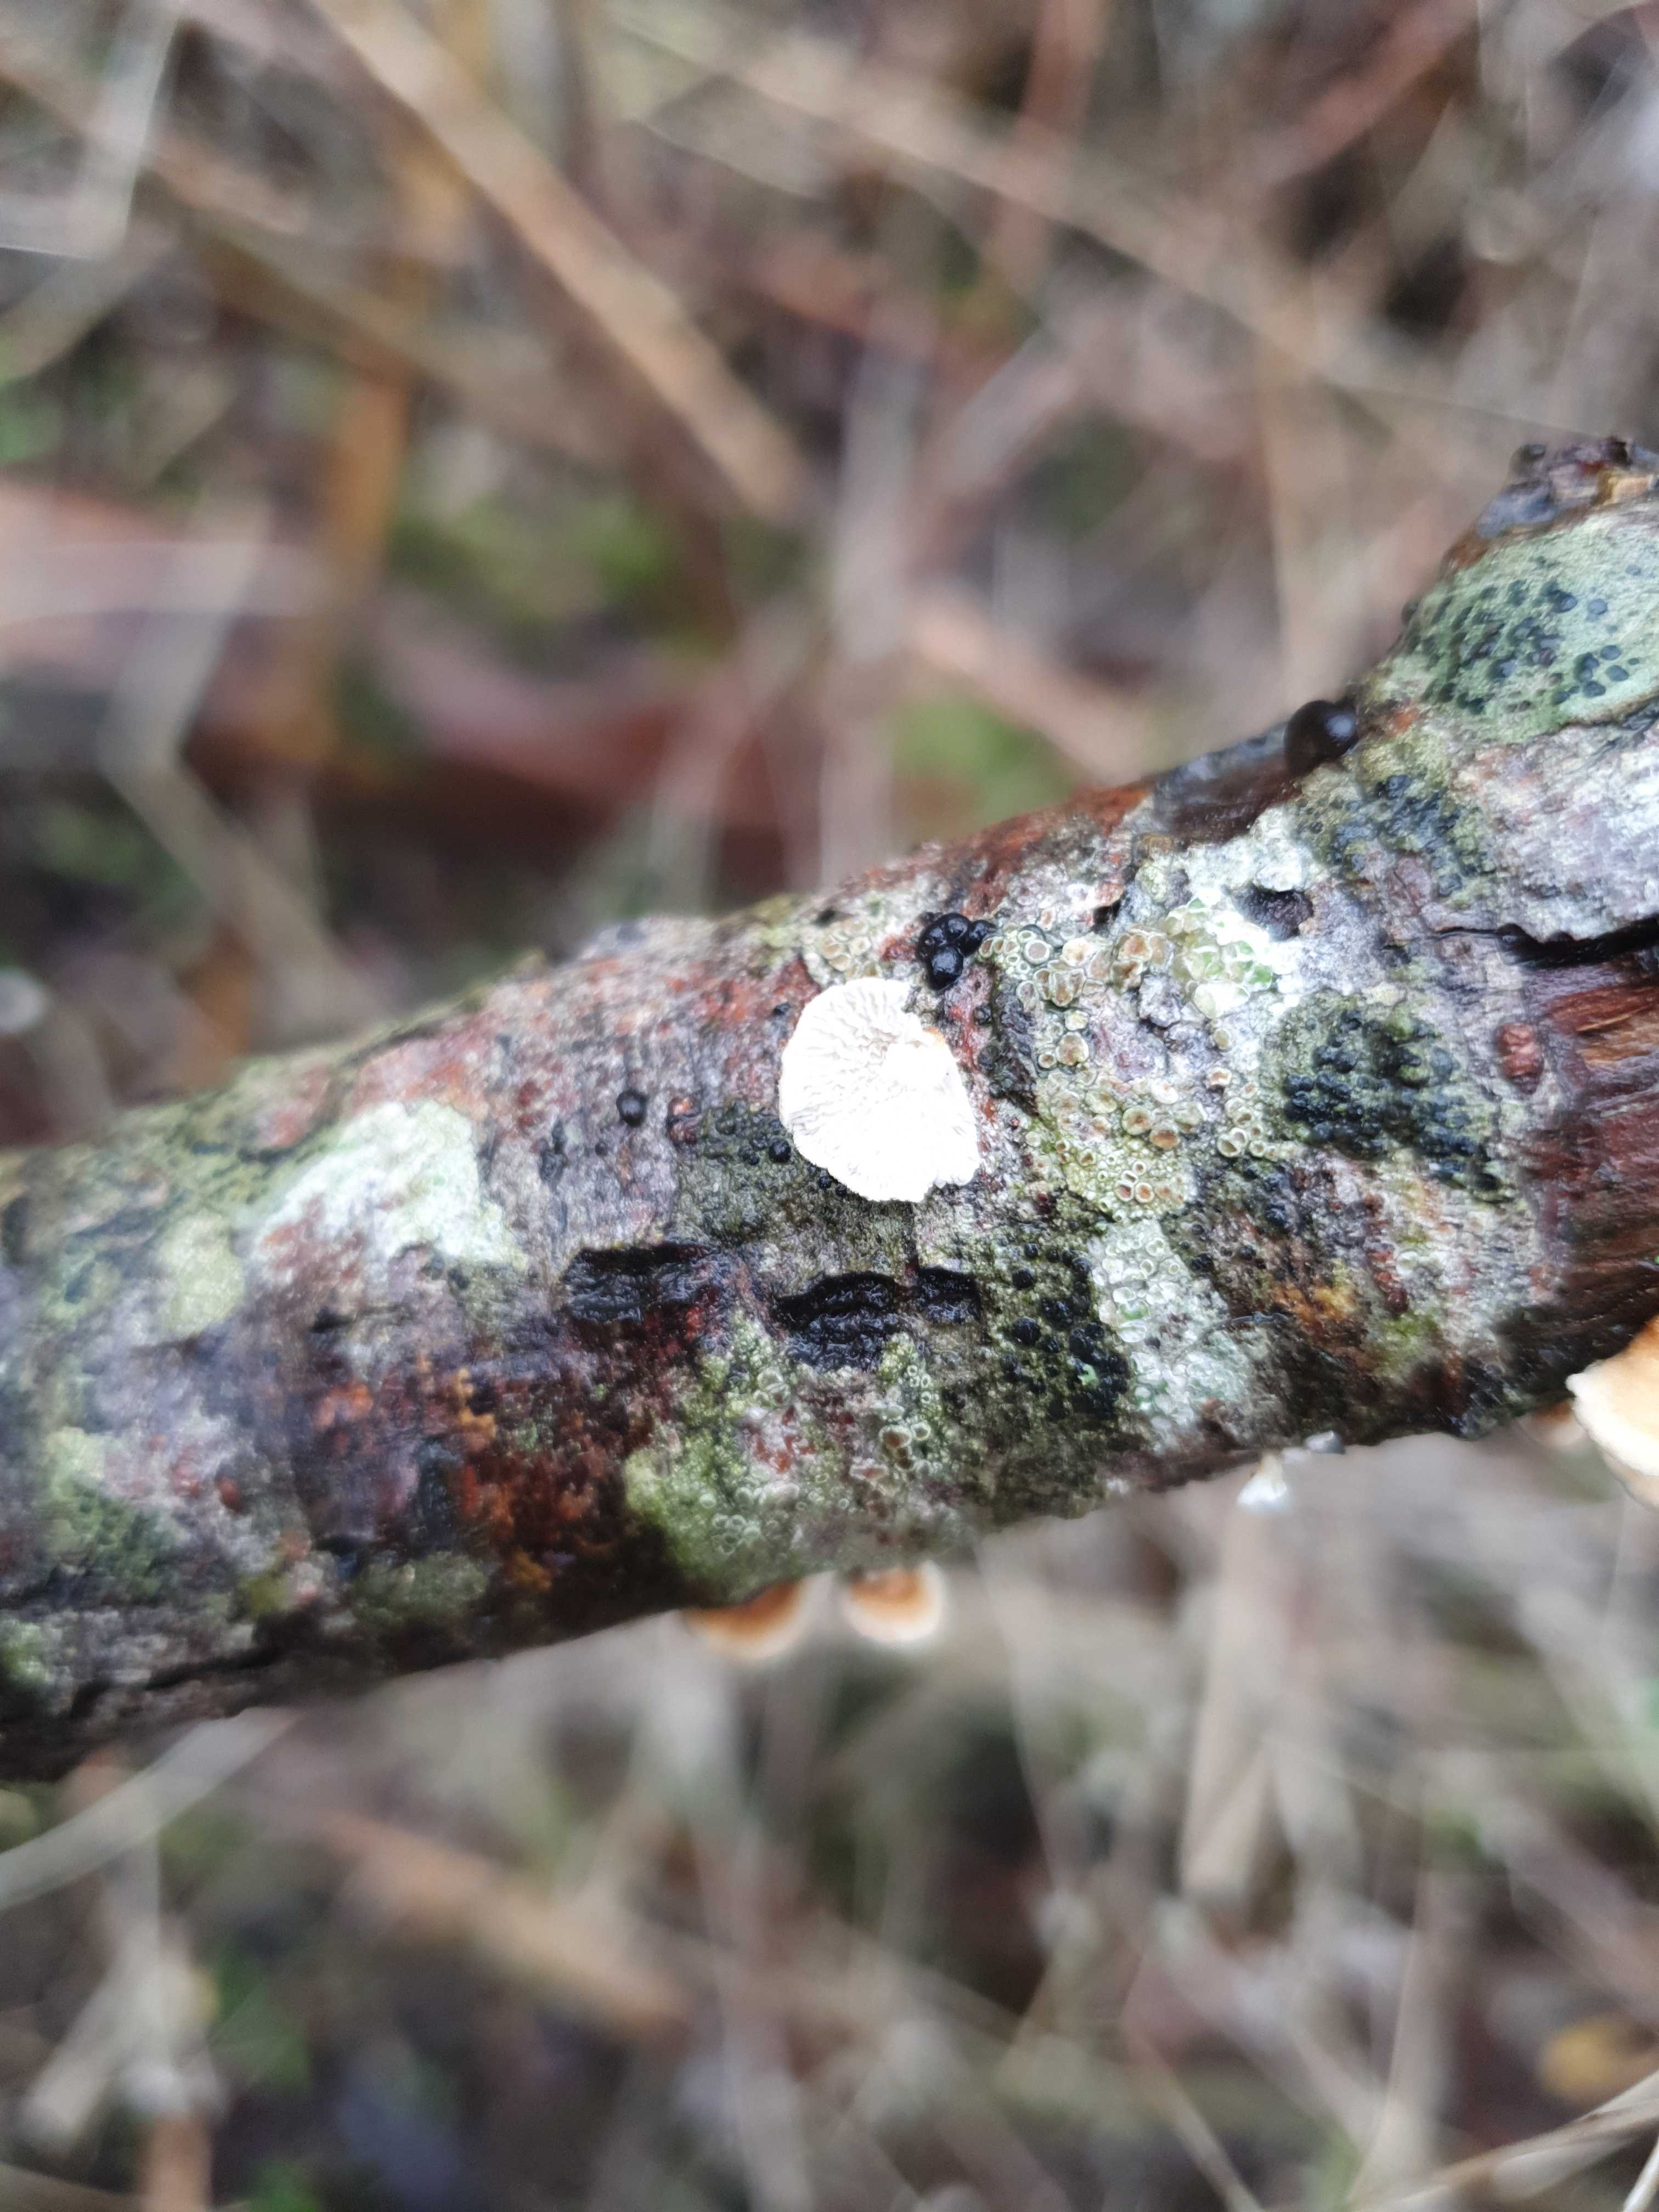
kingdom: Fungi
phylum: Basidiomycota
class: Agaricomycetes
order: Amylocorticiales
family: Amylocorticiaceae
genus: Plicaturopsis
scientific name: Plicaturopsis crispa
